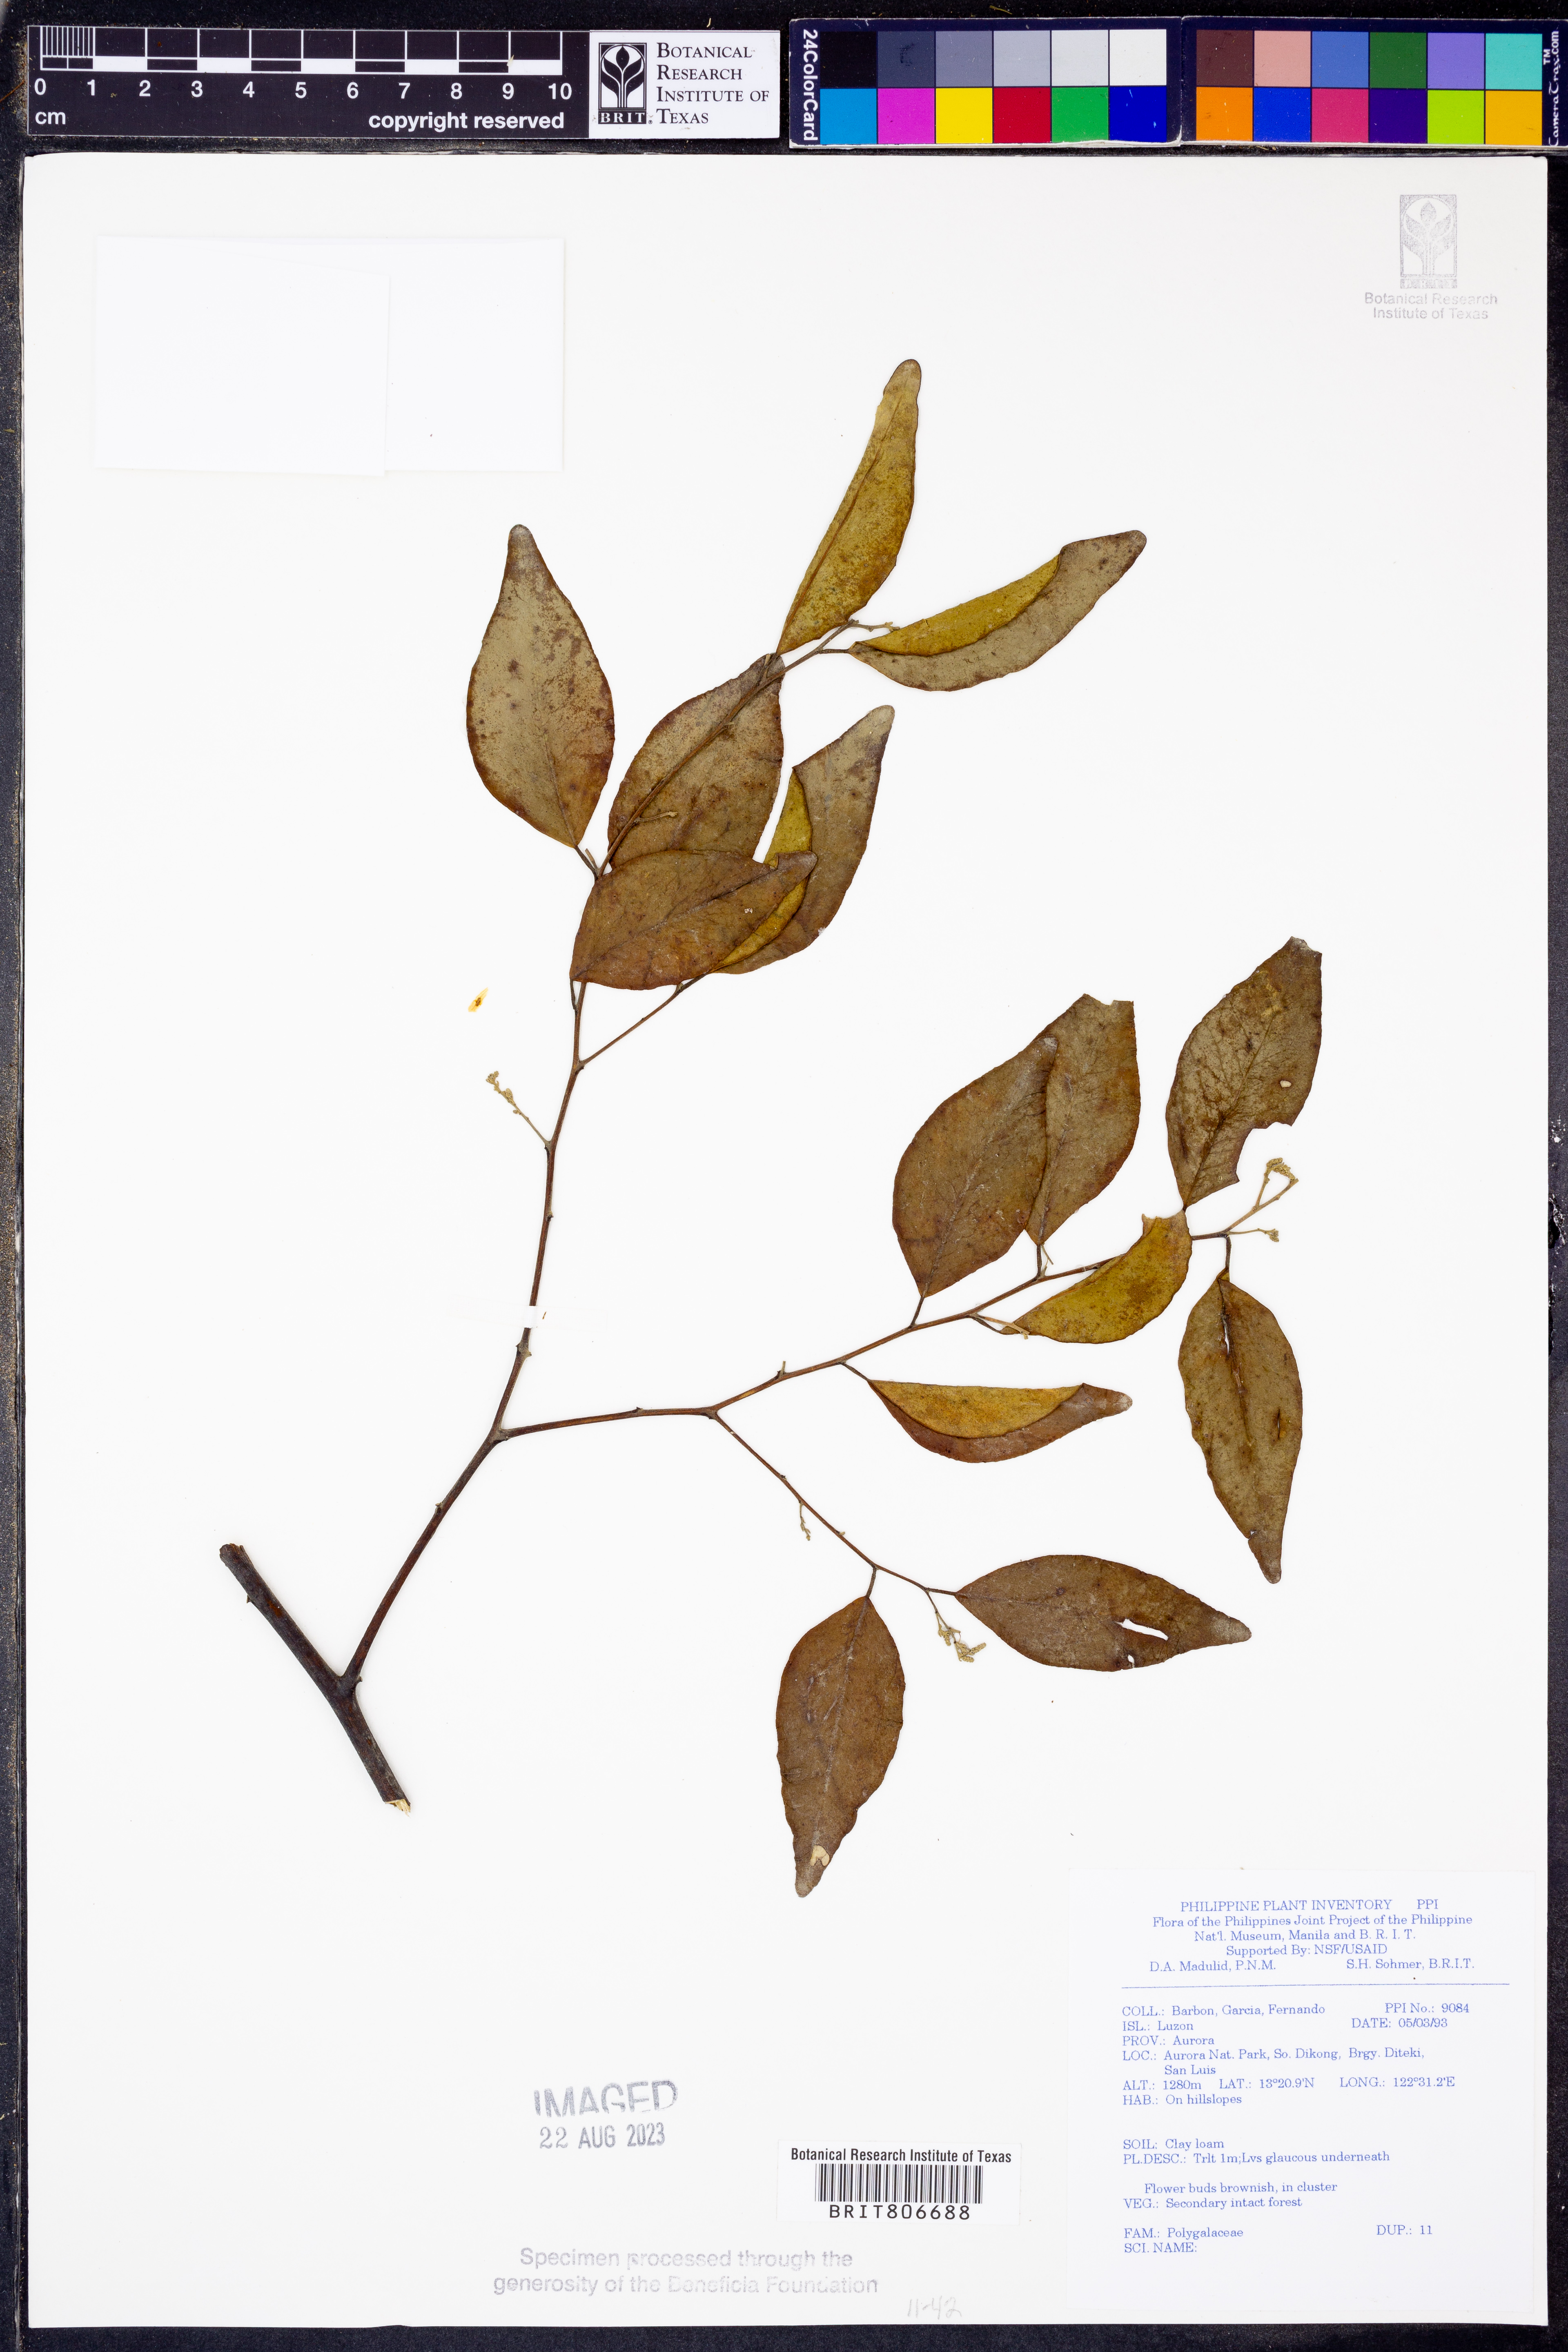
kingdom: Plantae
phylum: Tracheophyta
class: Magnoliopsida
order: Fabales
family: Polygalaceae
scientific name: Polygalaceae
